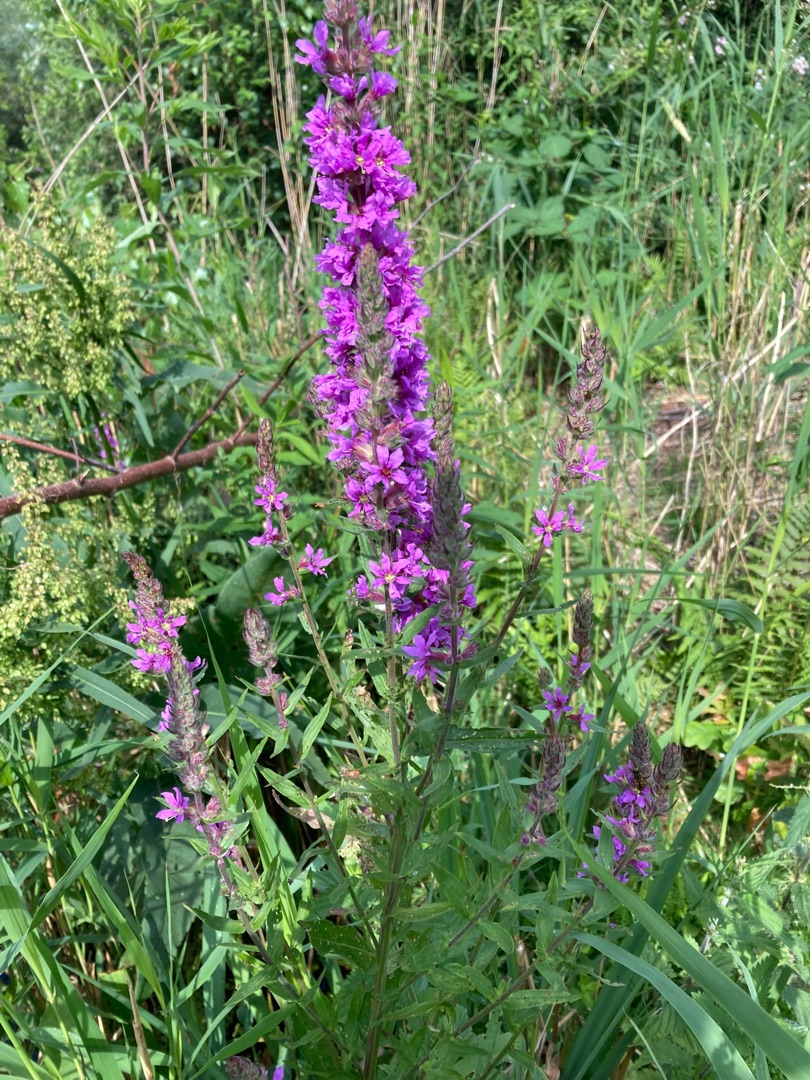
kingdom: Plantae
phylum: Tracheophyta
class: Magnoliopsida
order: Myrtales
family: Lythraceae
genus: Lythrum
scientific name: Lythrum salicaria
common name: Kattehale
